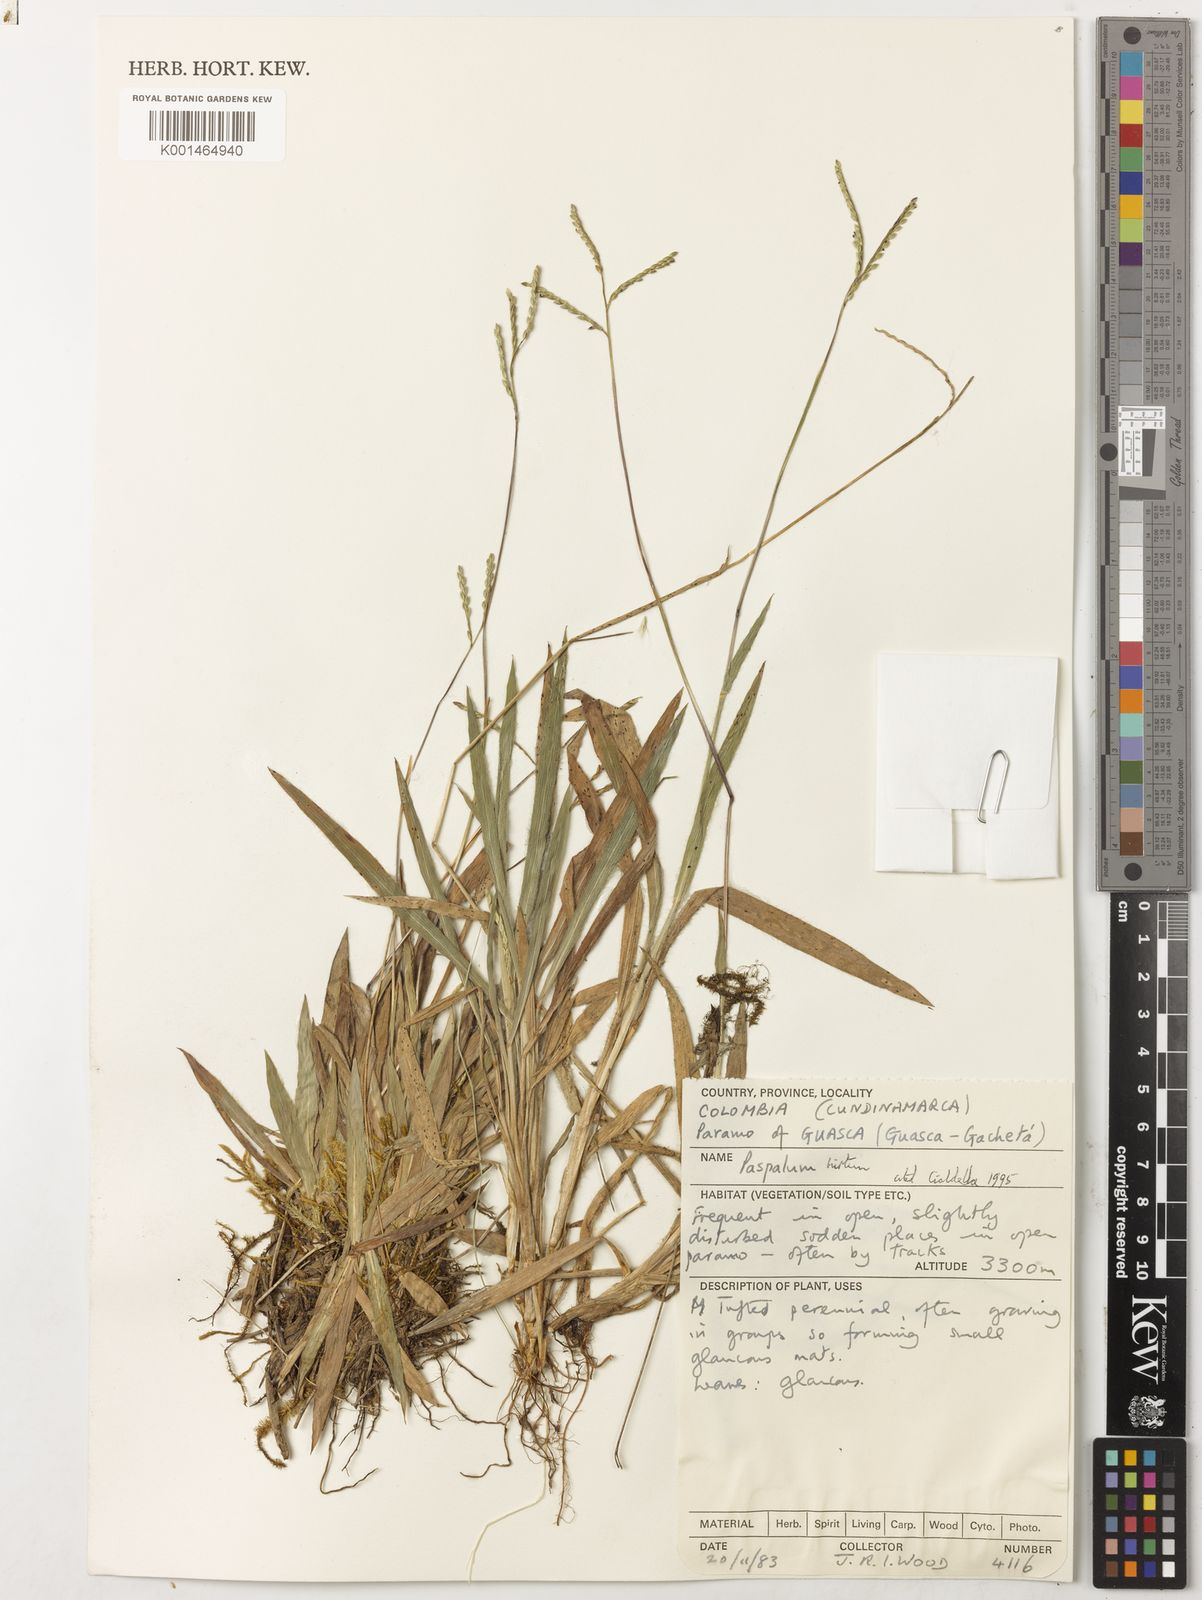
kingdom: Plantae
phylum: Tracheophyta
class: Liliopsida
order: Poales
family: Poaceae
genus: Paspalum
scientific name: Paspalum hirtum
